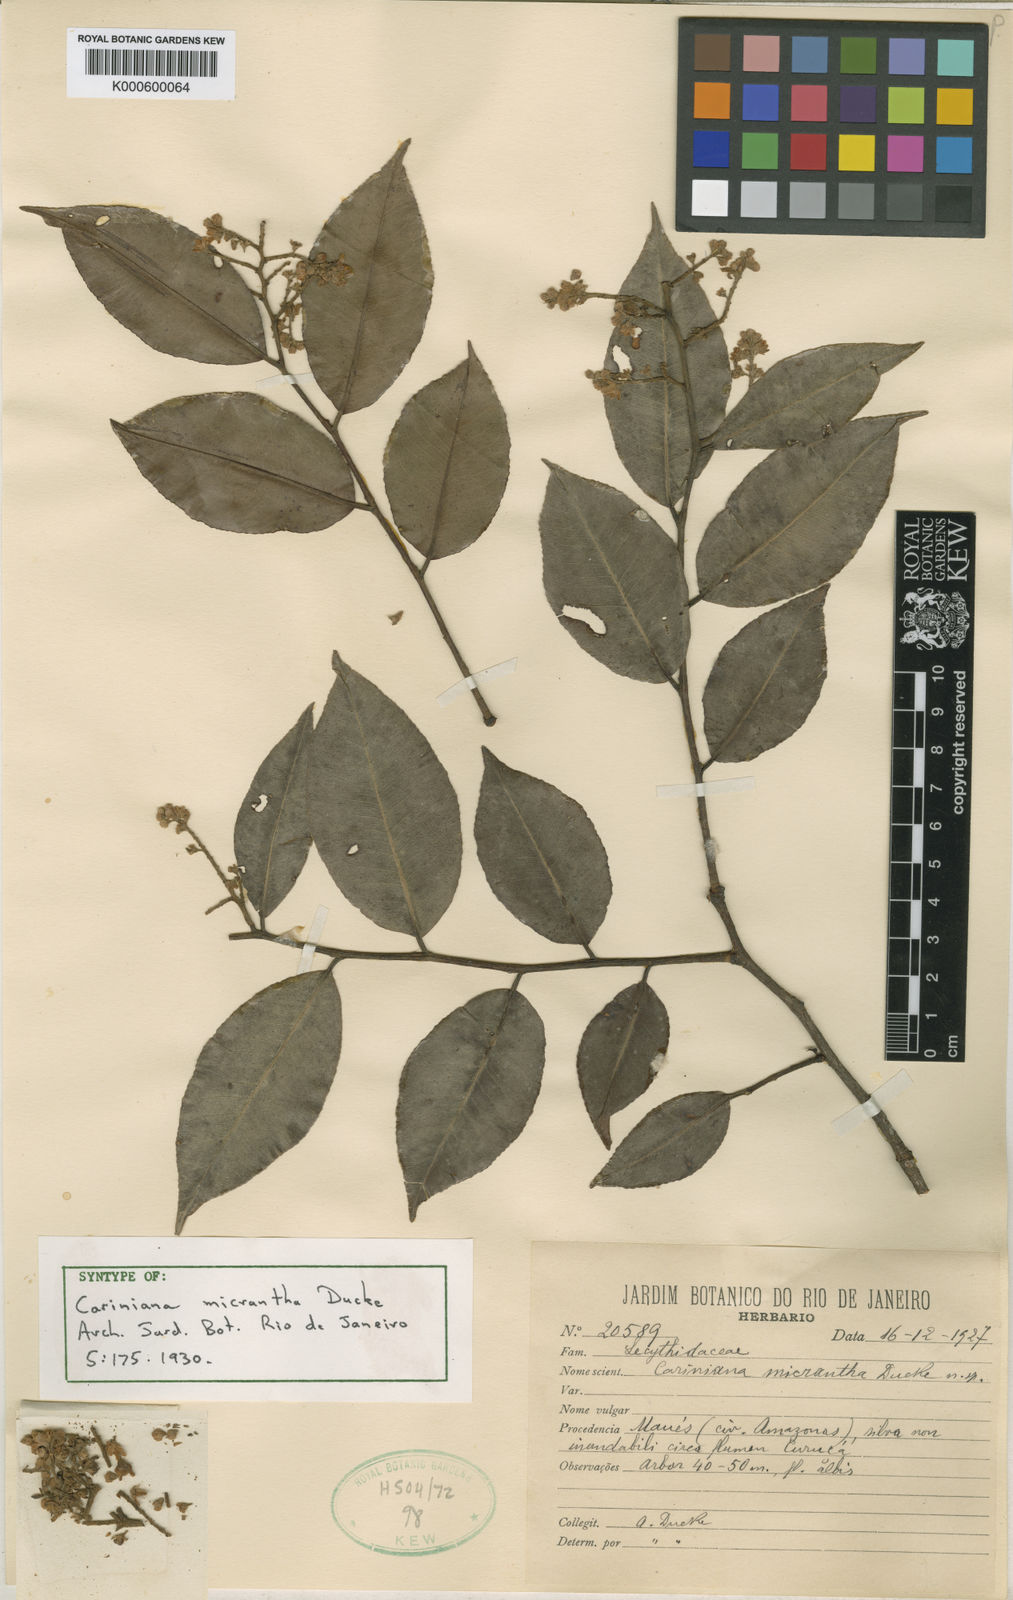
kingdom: Plantae
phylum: Tracheophyta
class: Magnoliopsida
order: Ericales
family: Lecythidaceae
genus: Cariniana
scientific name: Cariniana micrantha
